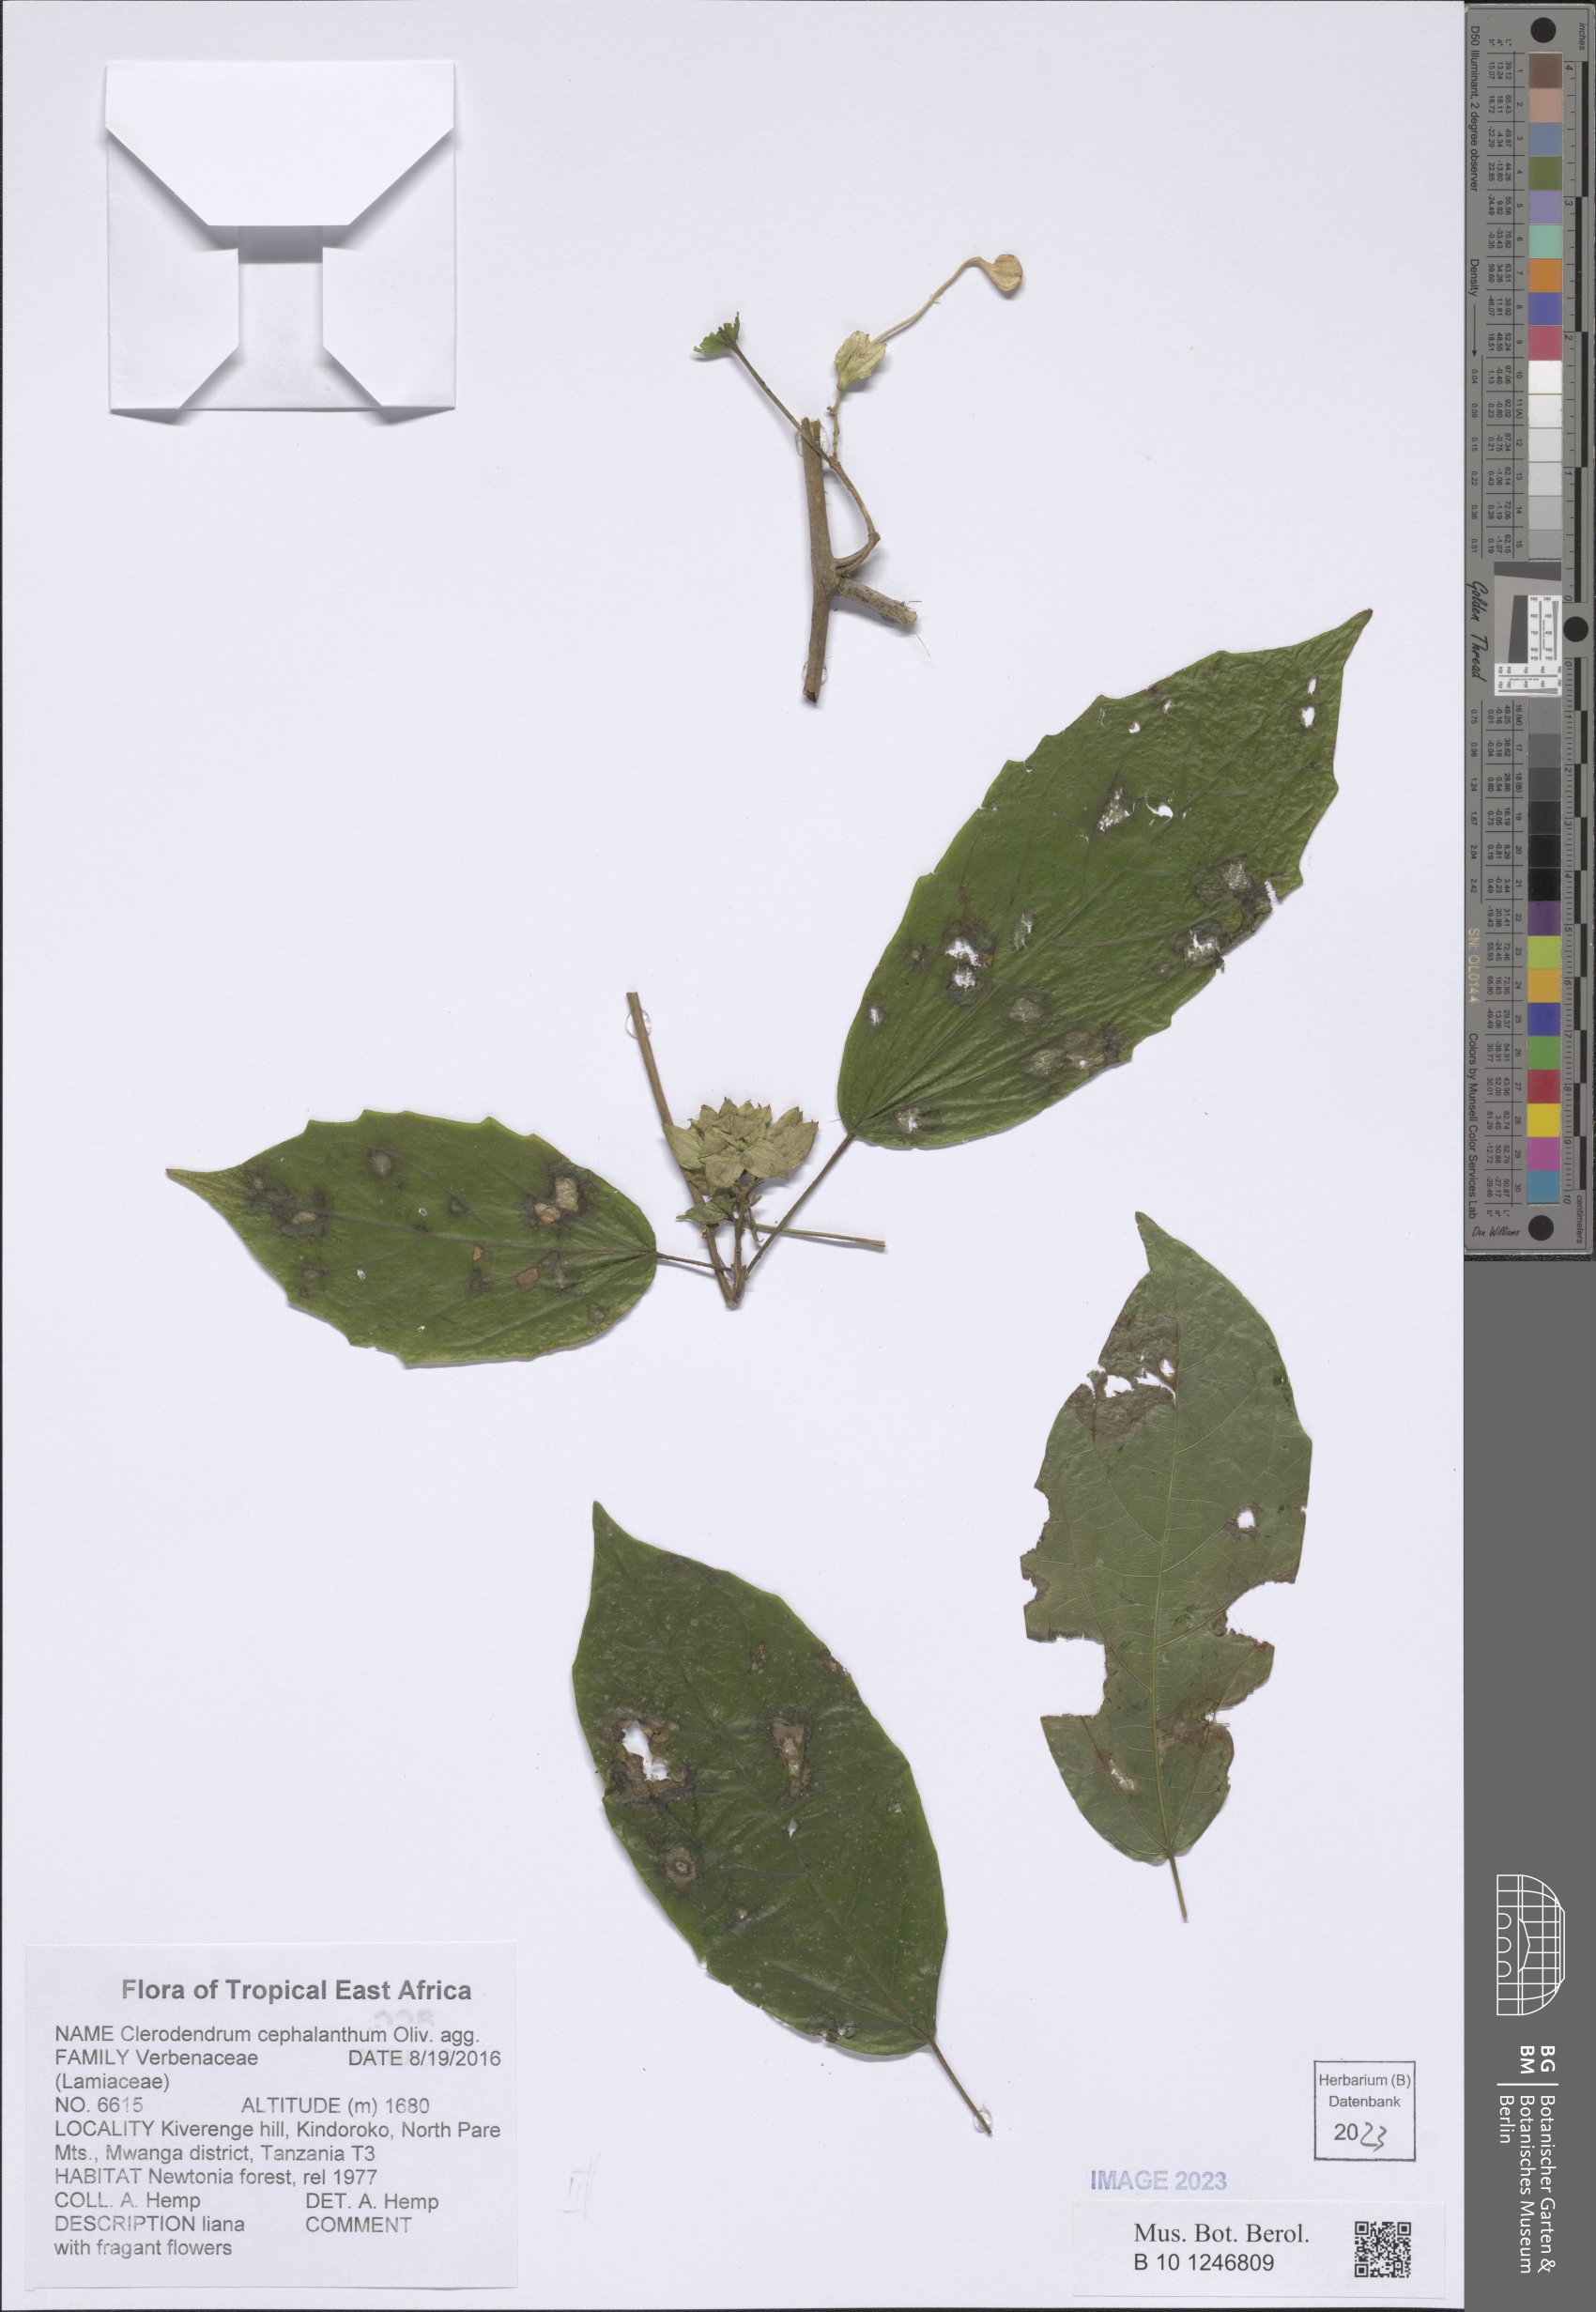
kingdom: Plantae
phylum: Tracheophyta
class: Magnoliopsida
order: Lamiales
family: Lamiaceae
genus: Clerodendrum
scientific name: Clerodendrum cephalanthum
